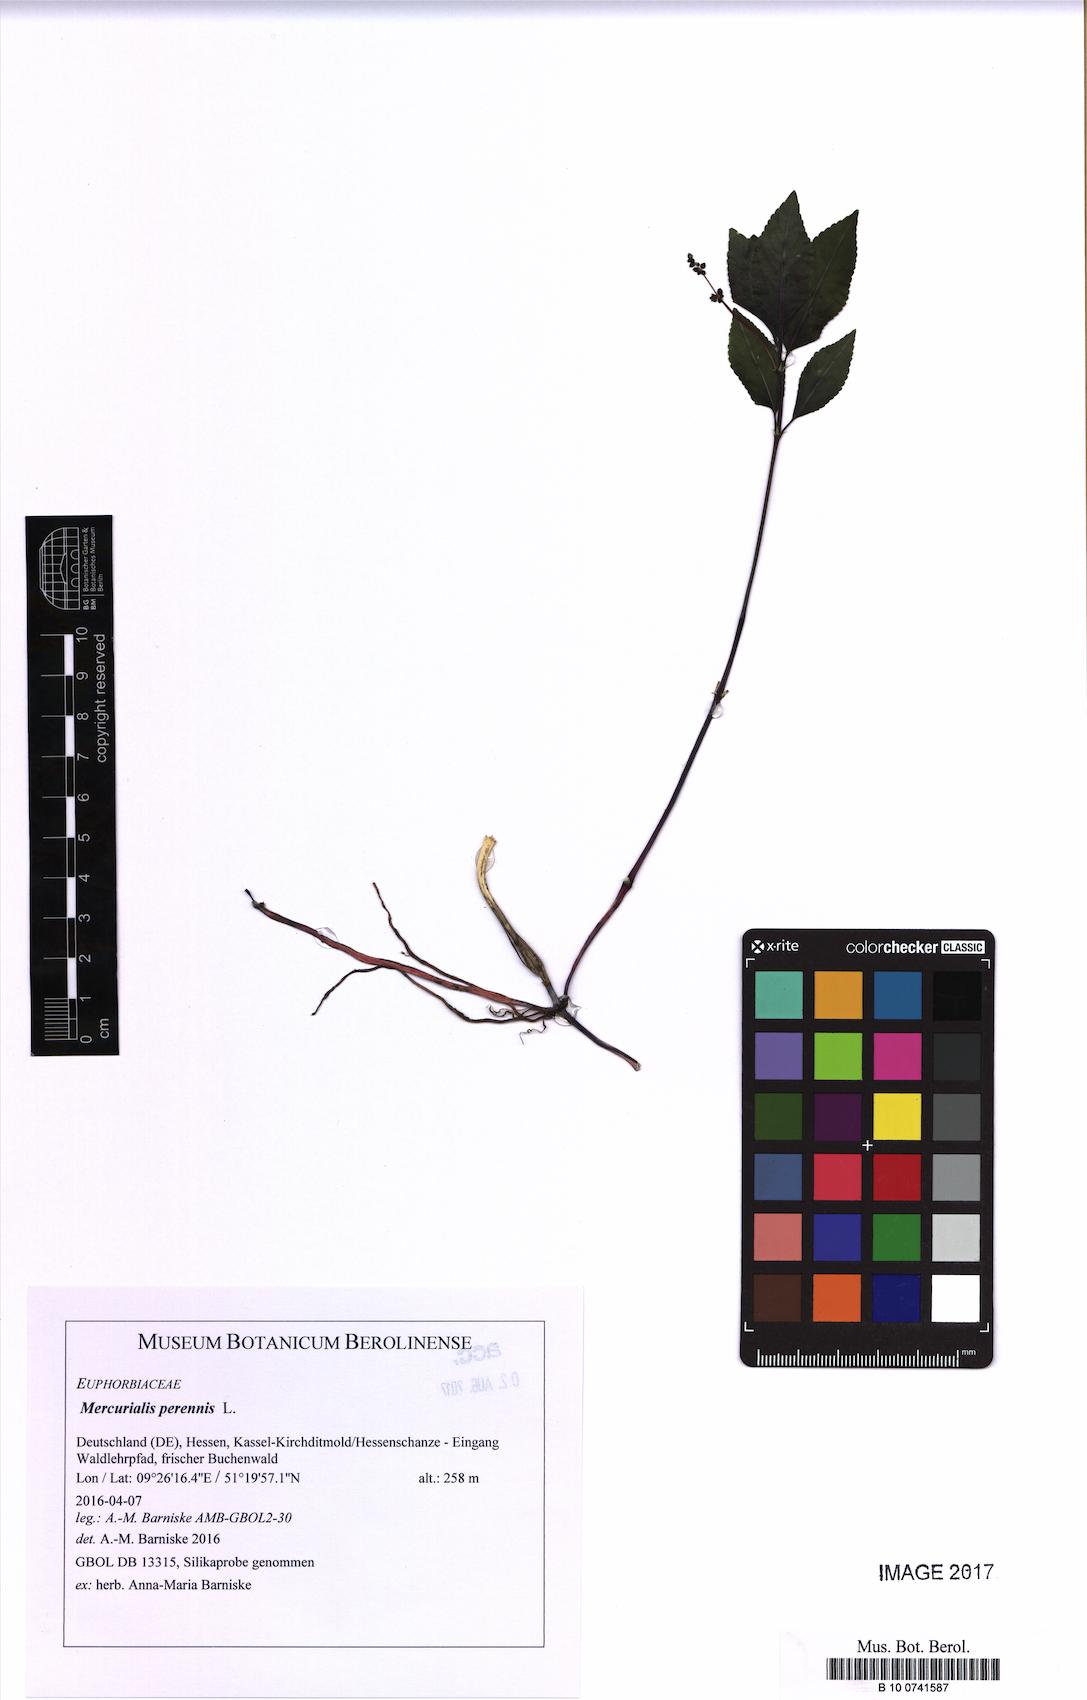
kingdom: Plantae
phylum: Tracheophyta
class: Magnoliopsida
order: Malpighiales
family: Euphorbiaceae
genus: Mercurialis
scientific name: Mercurialis perennis
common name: Dog mercury
